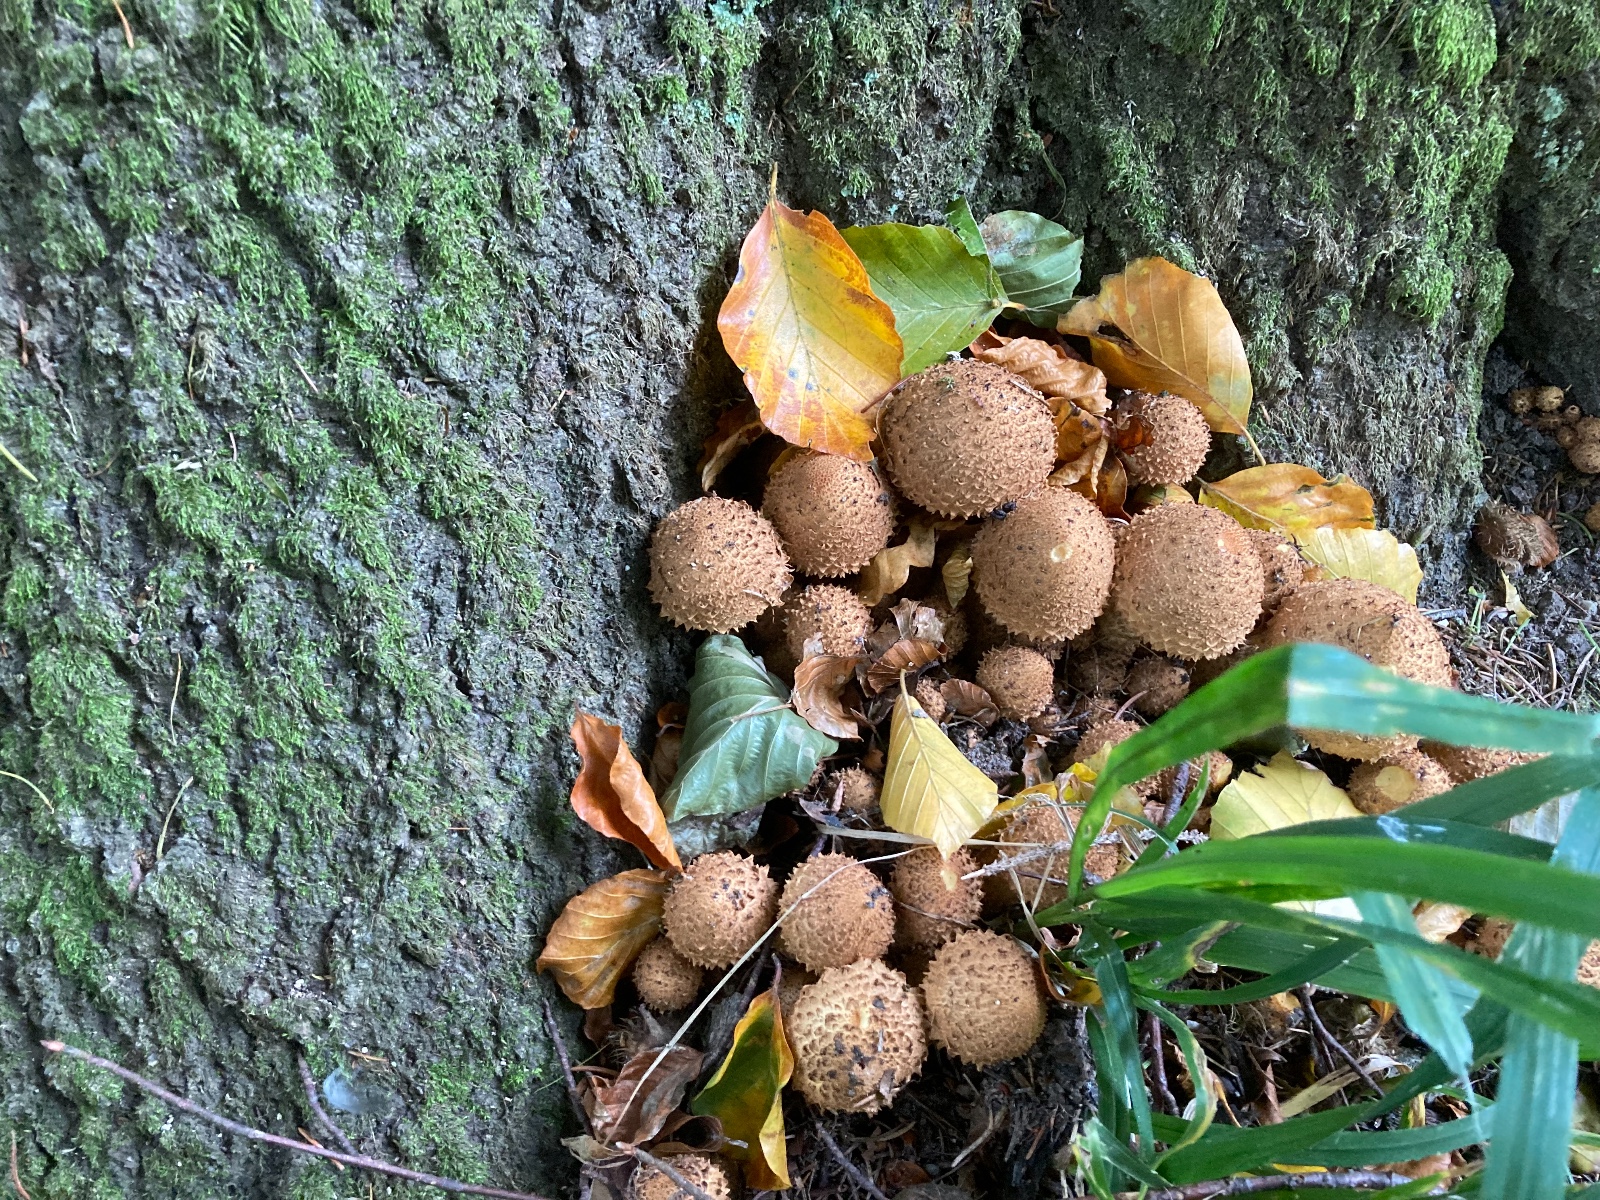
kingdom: Fungi
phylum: Basidiomycota
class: Agaricomycetes
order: Agaricales
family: Strophariaceae
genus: Pholiota
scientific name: Pholiota squarrosa
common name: krumskællet skælhat
